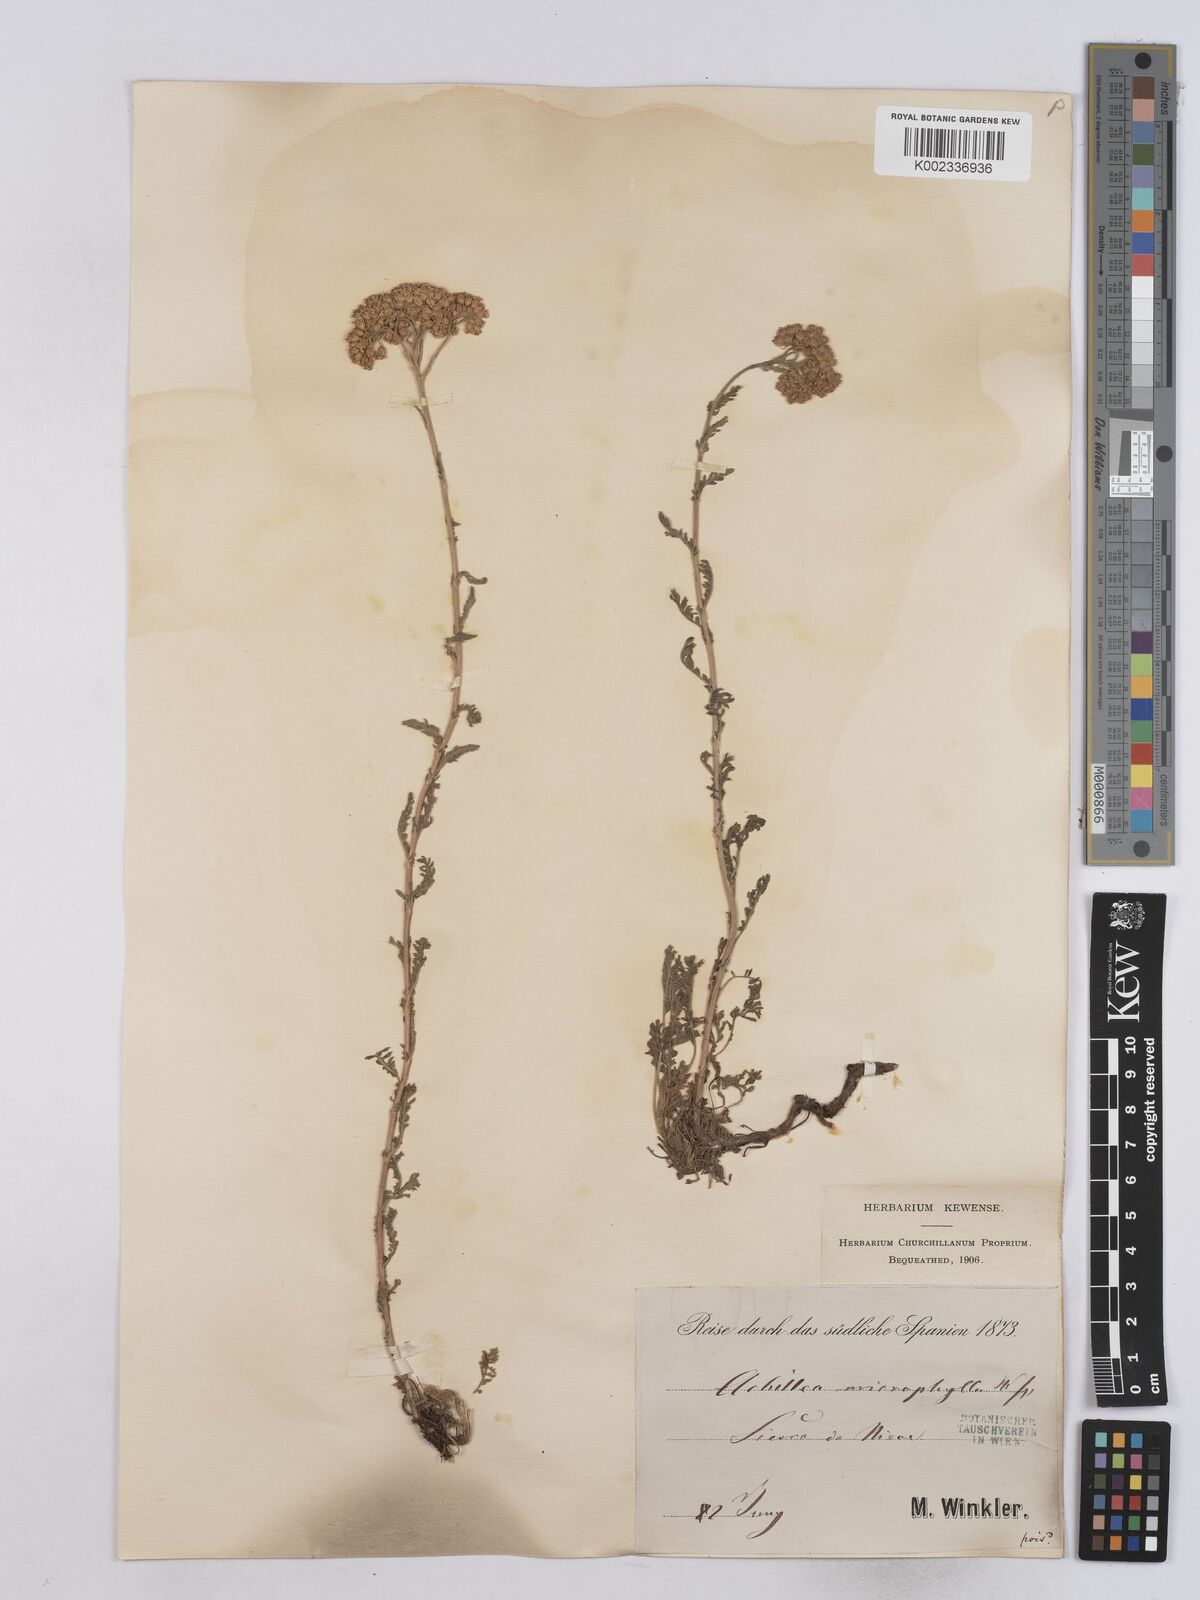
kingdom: Plantae
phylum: Tracheophyta
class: Magnoliopsida
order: Asterales
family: Asteraceae
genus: Achillea
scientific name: Achillea odorata
